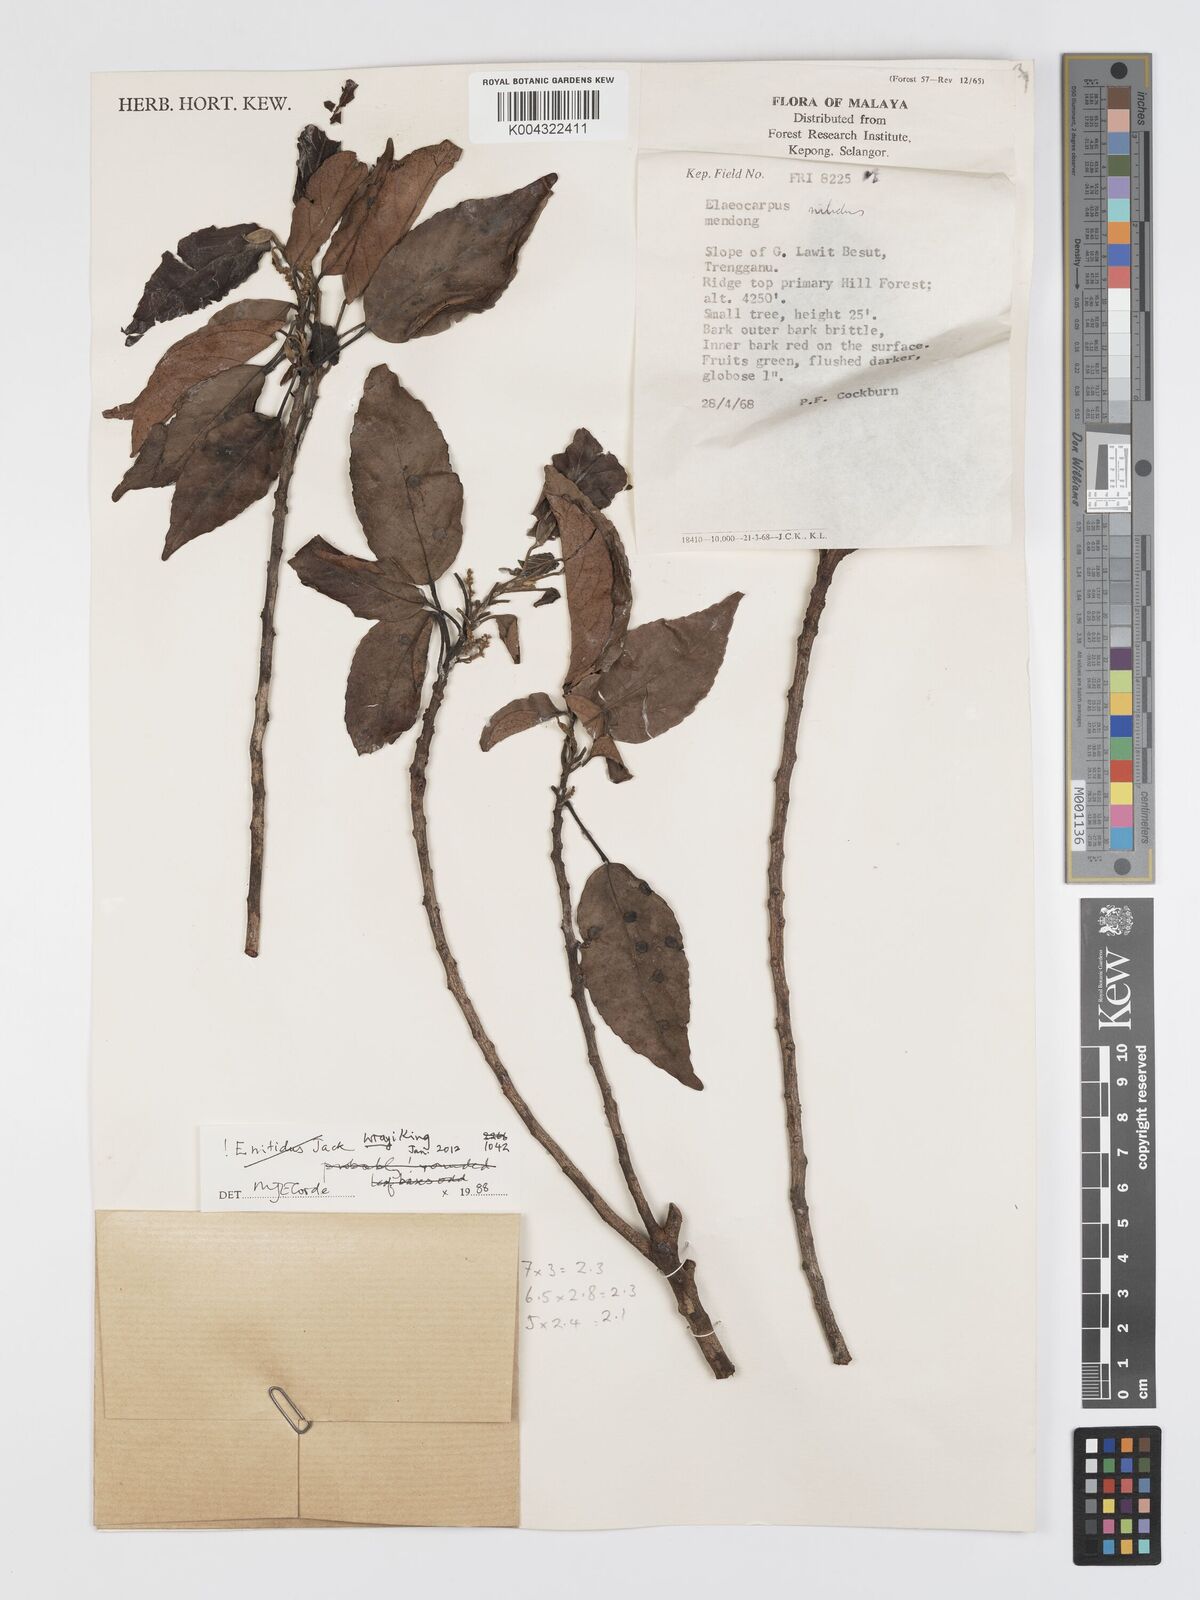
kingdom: Plantae
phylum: Tracheophyta
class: Magnoliopsida
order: Oxalidales
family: Elaeocarpaceae
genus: Elaeocarpus
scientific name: Elaeocarpus nitidus
